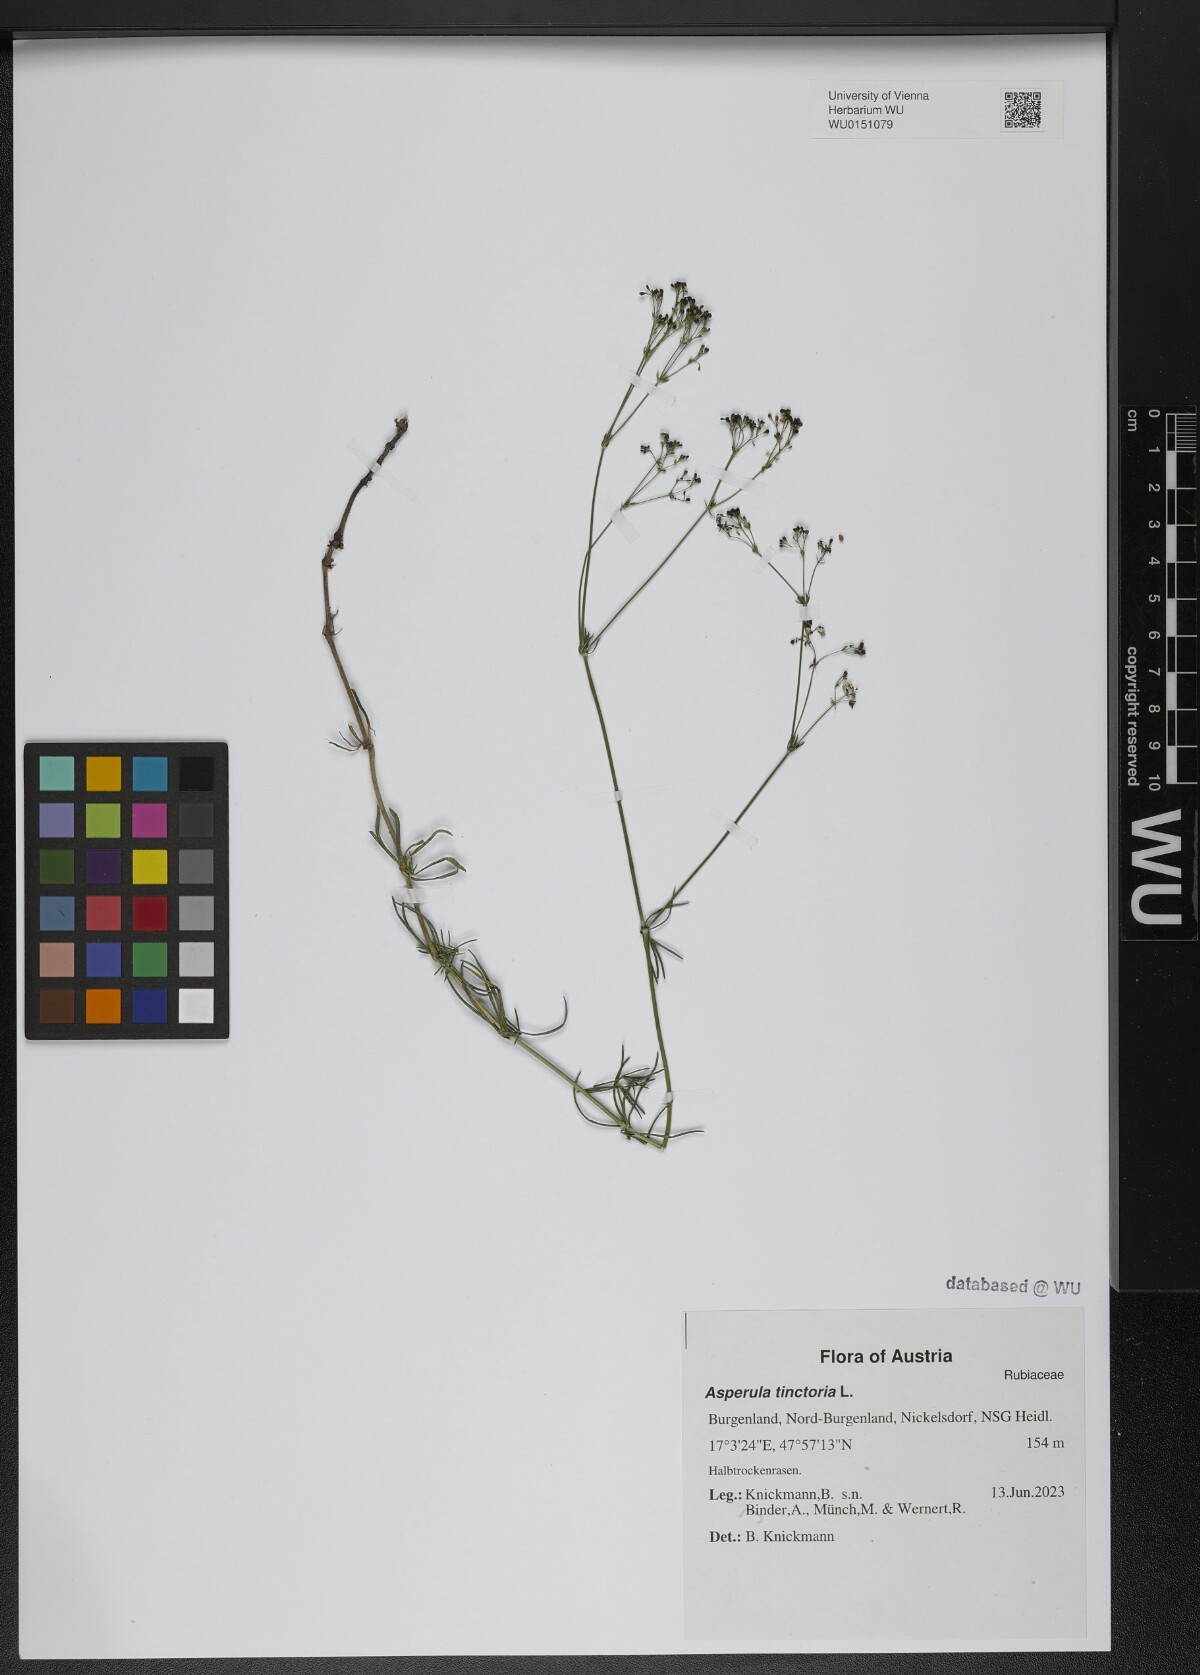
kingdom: Plantae
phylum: Tracheophyta
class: Magnoliopsida
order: Gentianales
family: Rubiaceae
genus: Asperula
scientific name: Asperula tinctoria
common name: Dyer's woodruff
